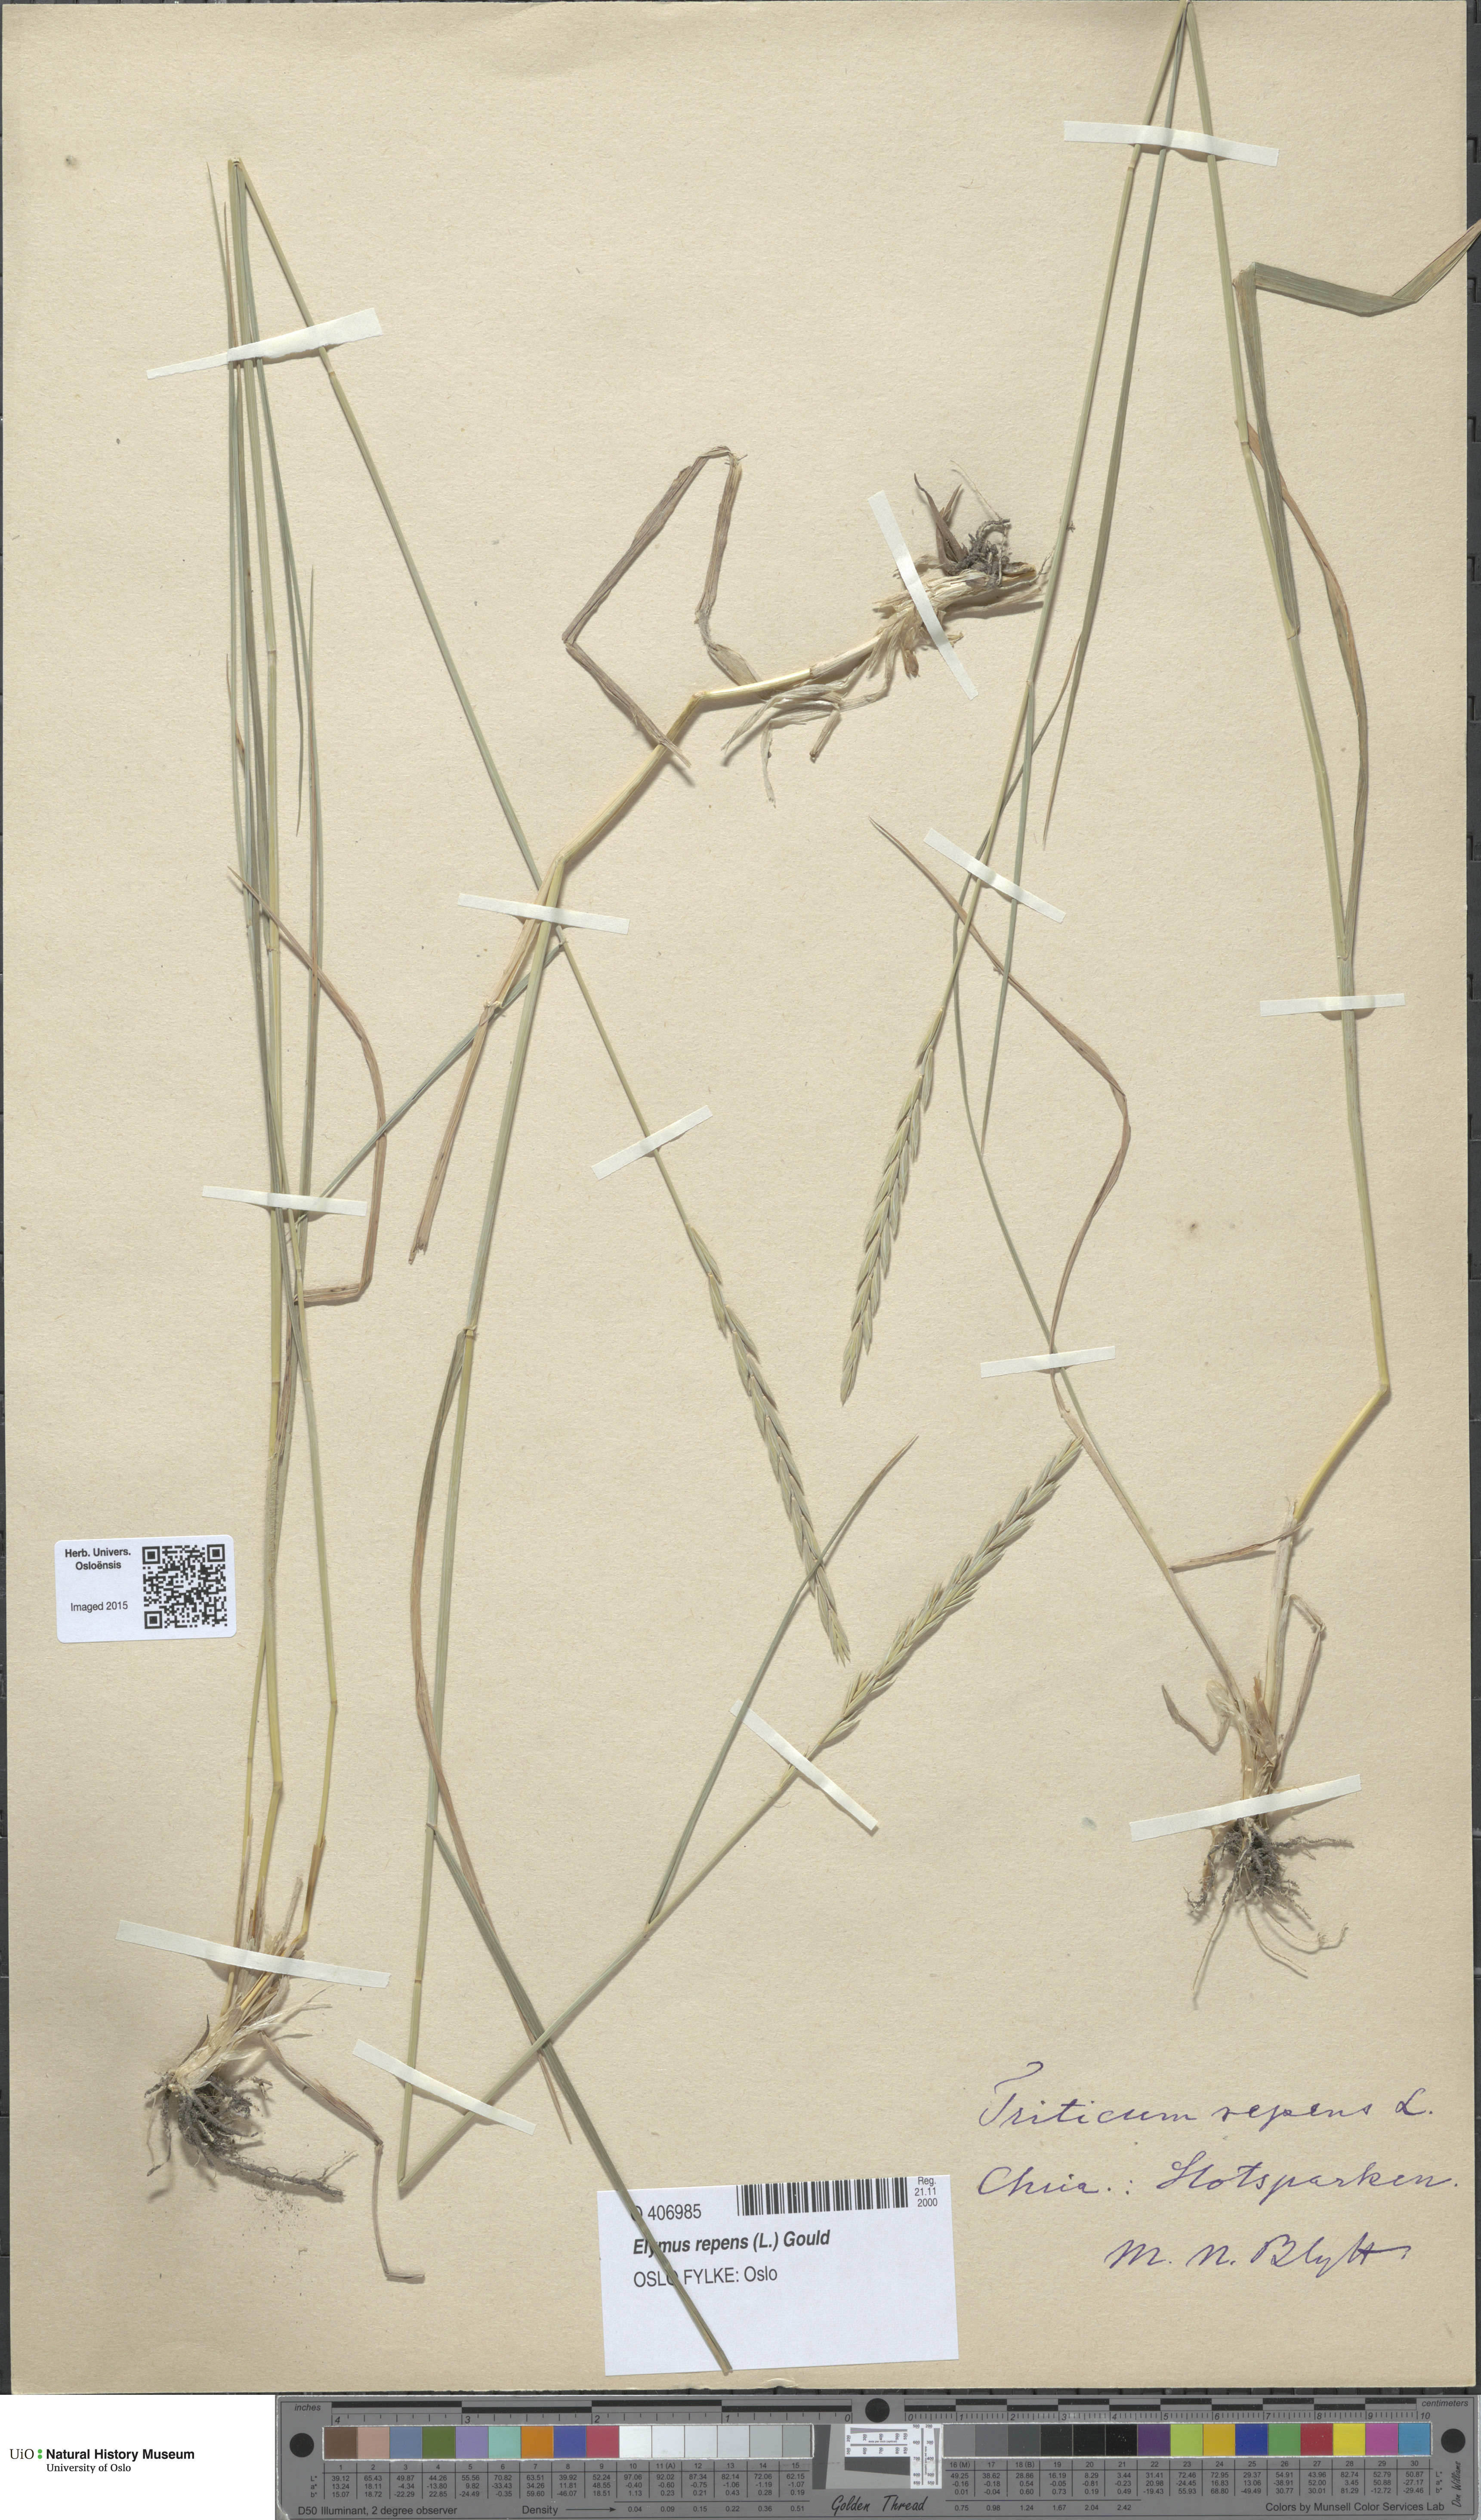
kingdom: Plantae
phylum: Tracheophyta
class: Liliopsida
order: Poales
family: Poaceae
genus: Elymus
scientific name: Elymus repens
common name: Quackgrass
